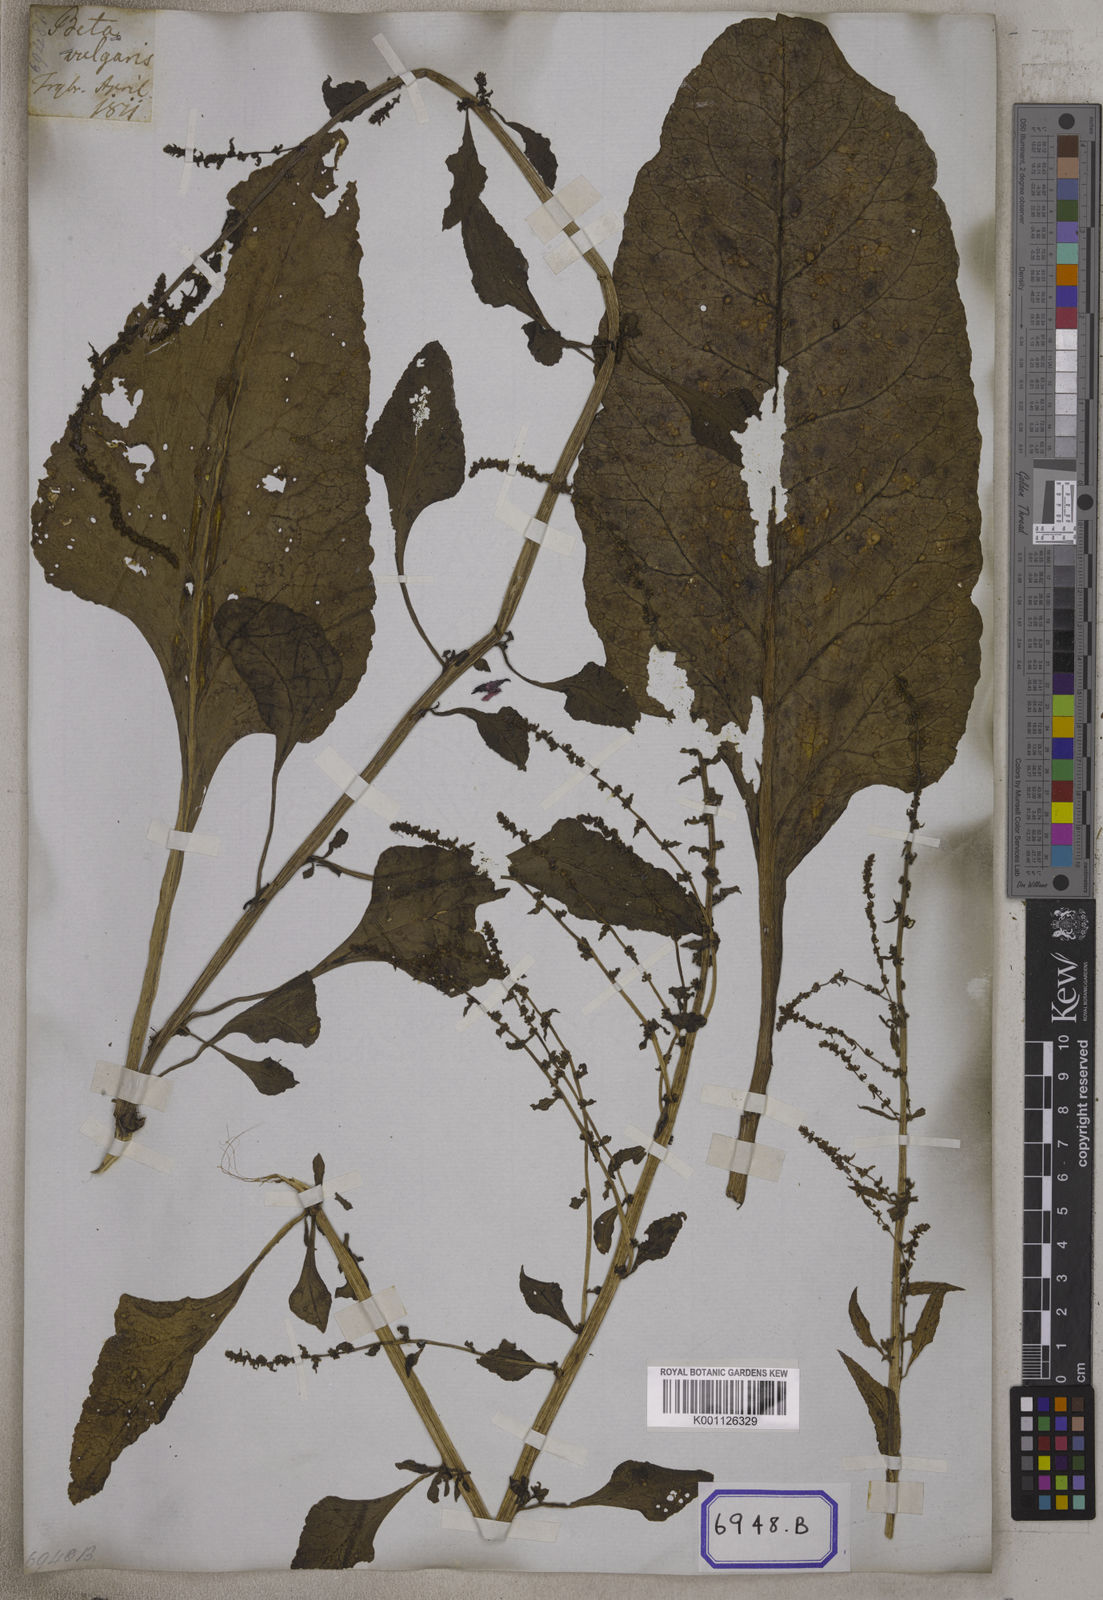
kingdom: Plantae
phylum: Tracheophyta
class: Magnoliopsida
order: Caryophyllales
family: Amaranthaceae
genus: Beta
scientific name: Beta vulgaris
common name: Beet
